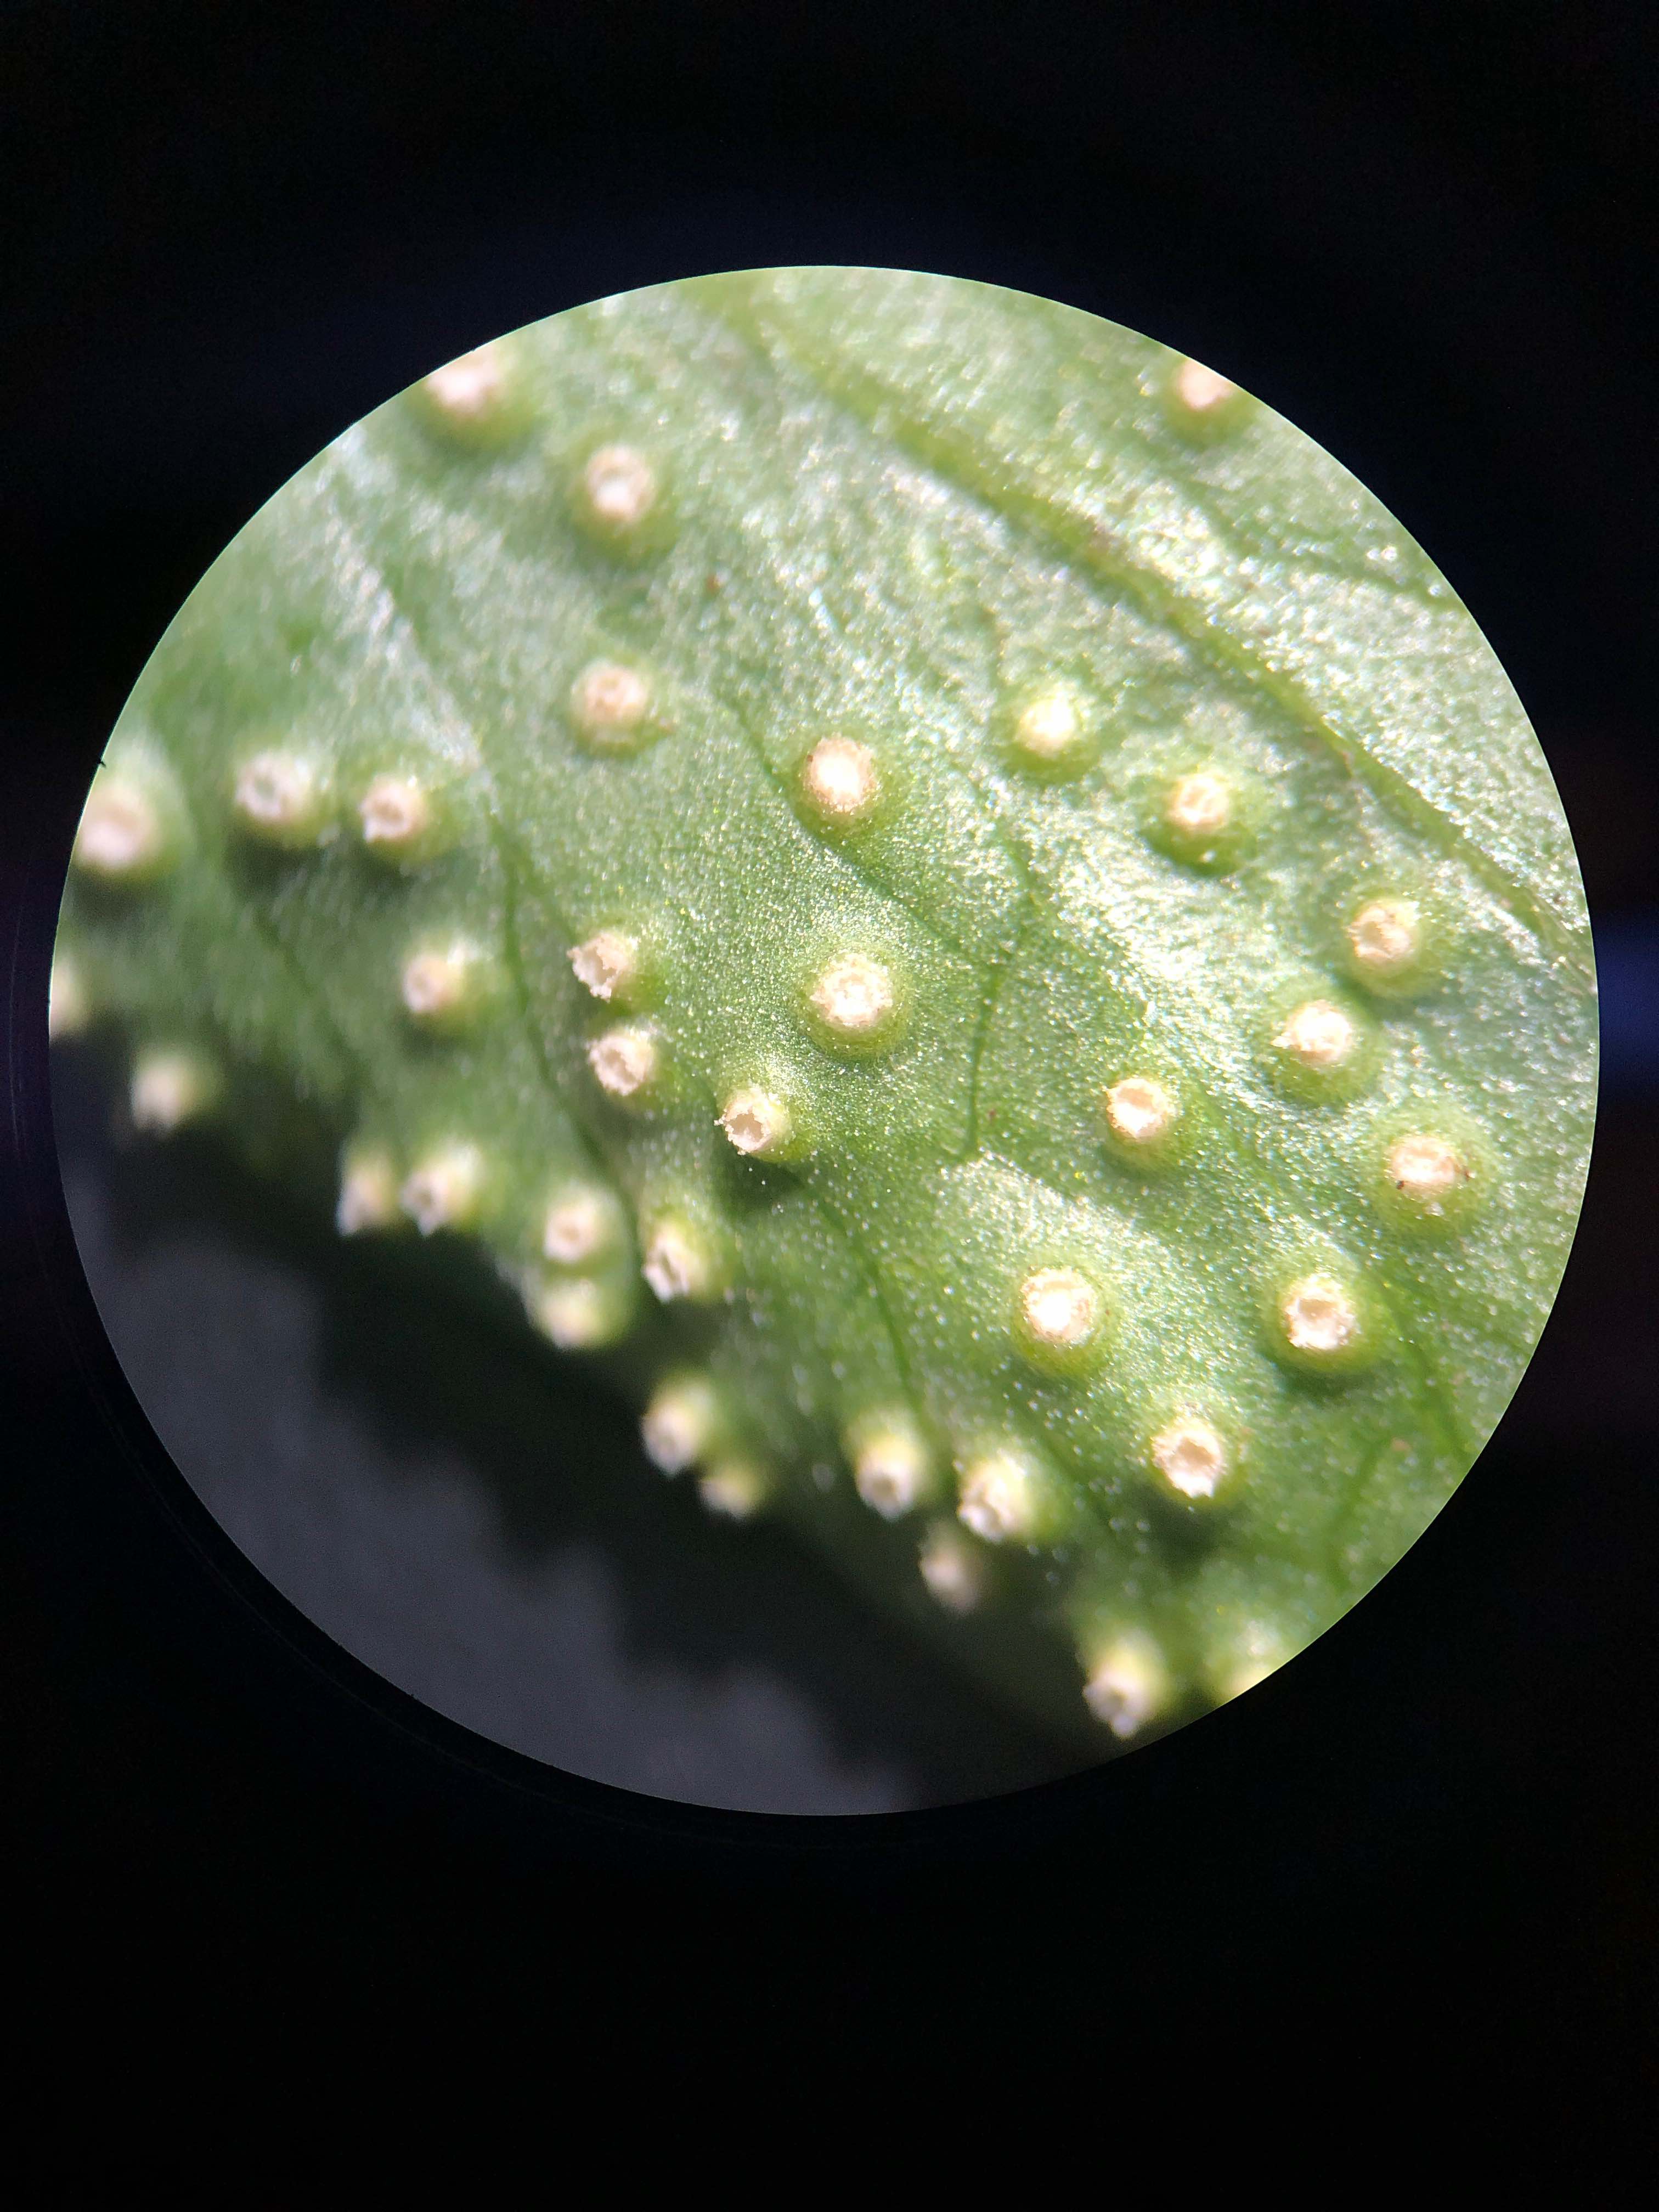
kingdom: Fungi
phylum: Basidiomycota
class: Pucciniomycetes
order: Pucciniales
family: Ochropsoraceae
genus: Ochropsora
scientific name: Ochropsora ariae
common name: anemone-okkerpletrust
